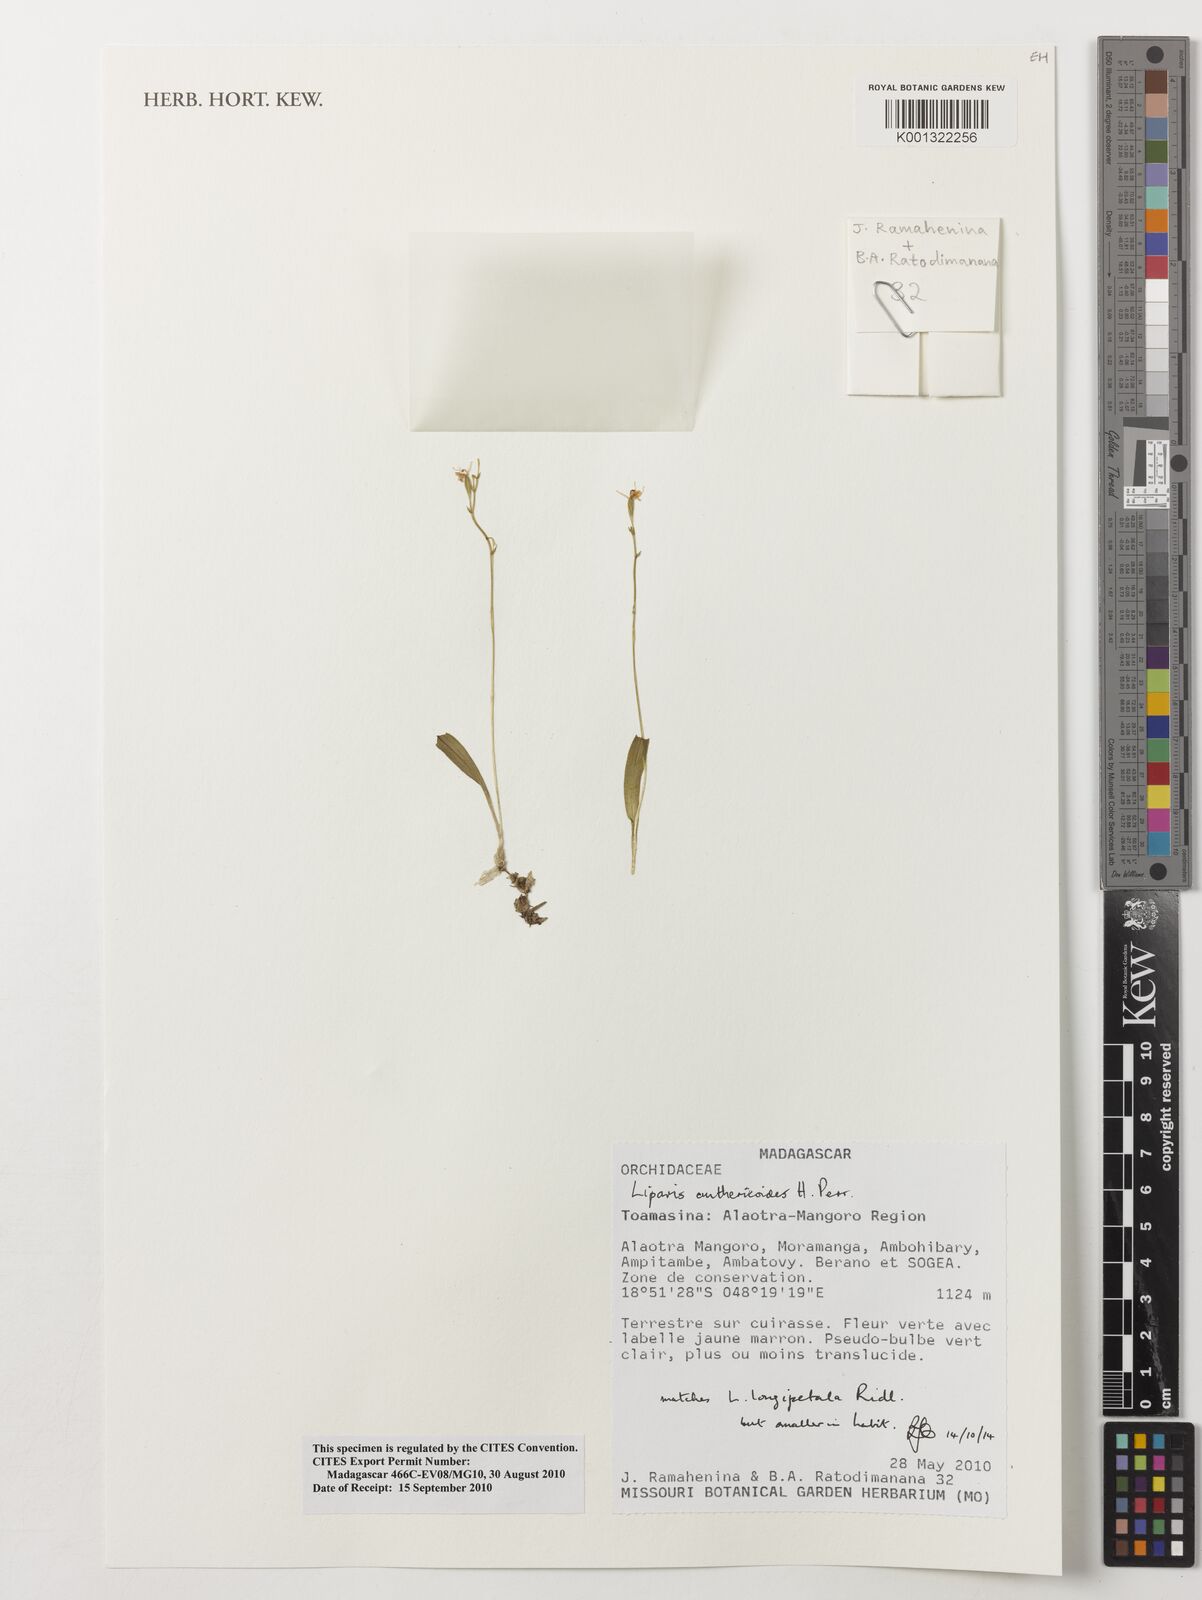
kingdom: Plantae
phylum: Tracheophyta
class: Liliopsida
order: Asparagales
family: Orchidaceae
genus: Liparis
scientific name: Liparis longipetala
